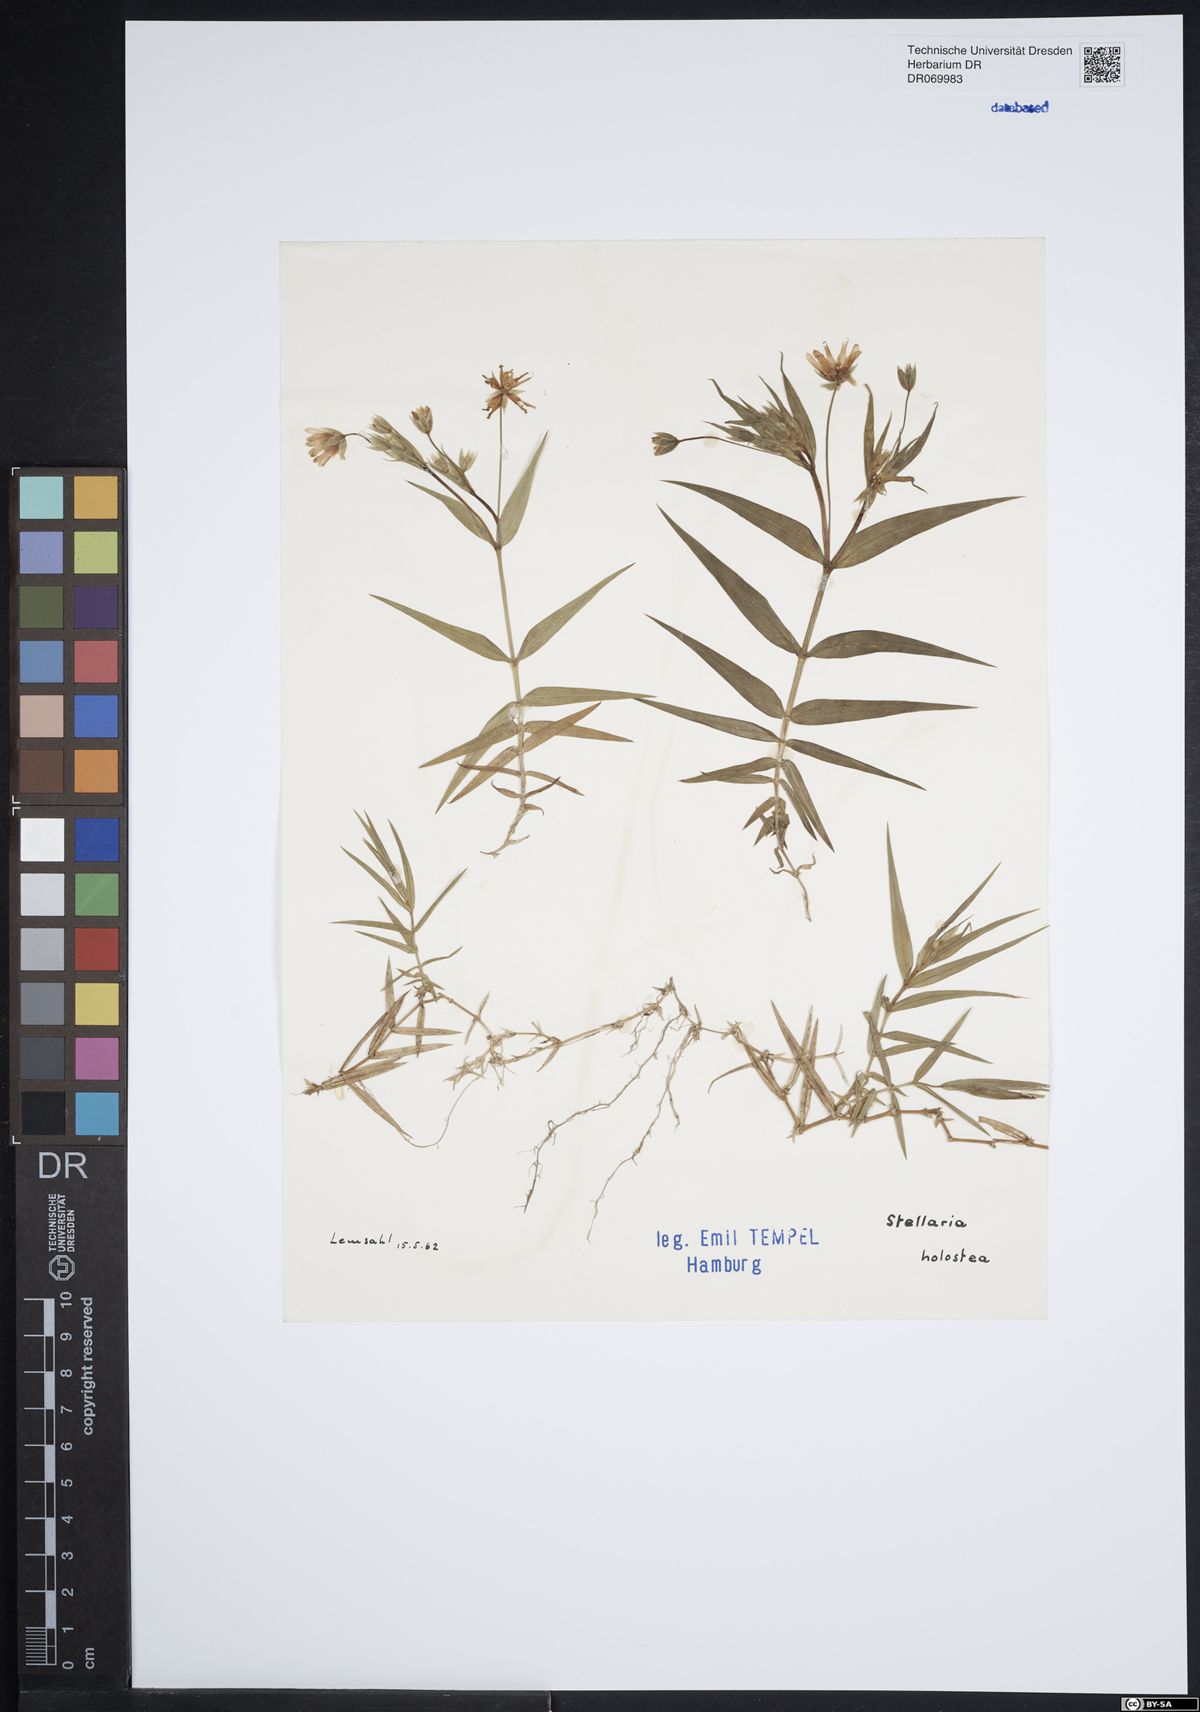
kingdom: Plantae
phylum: Tracheophyta
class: Magnoliopsida
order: Caryophyllales
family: Caryophyllaceae
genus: Rabelera
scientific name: Rabelera holostea
